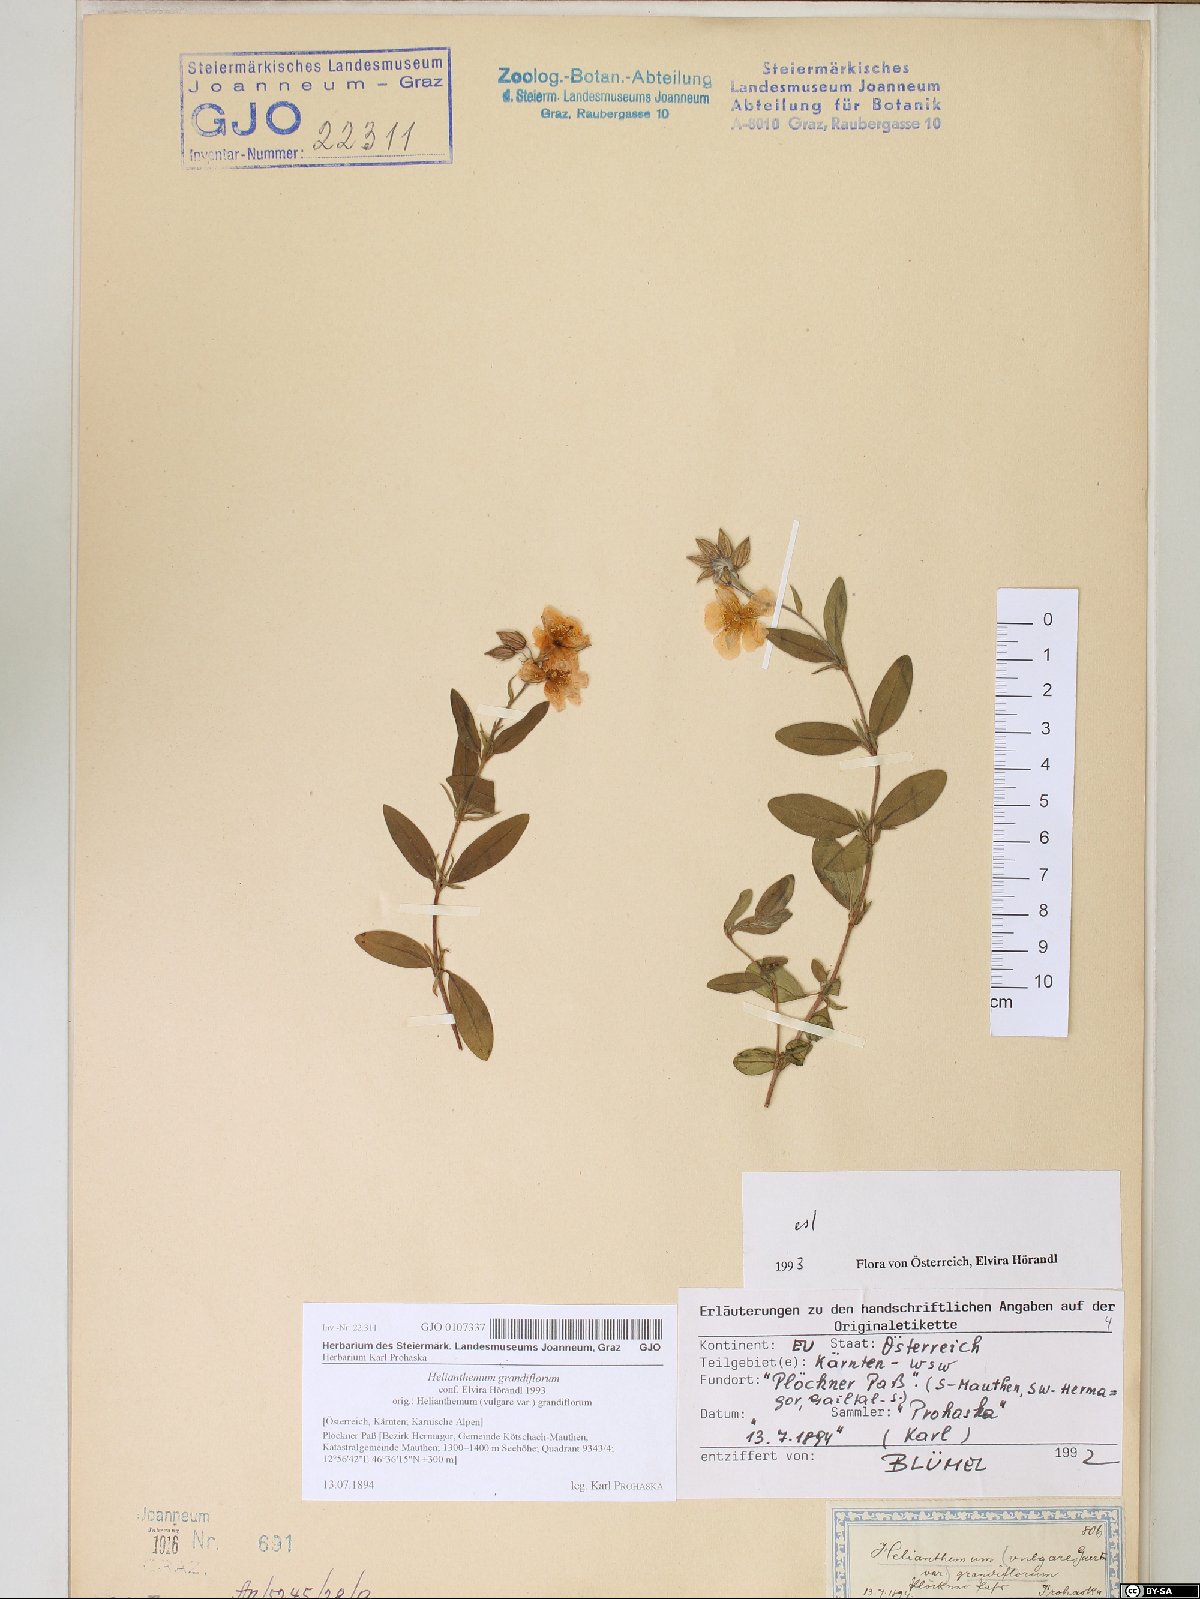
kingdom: Plantae
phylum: Tracheophyta
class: Magnoliopsida
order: Malvales
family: Cistaceae
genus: Helianthemum
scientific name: Helianthemum nummularium
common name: Common rock-rose
